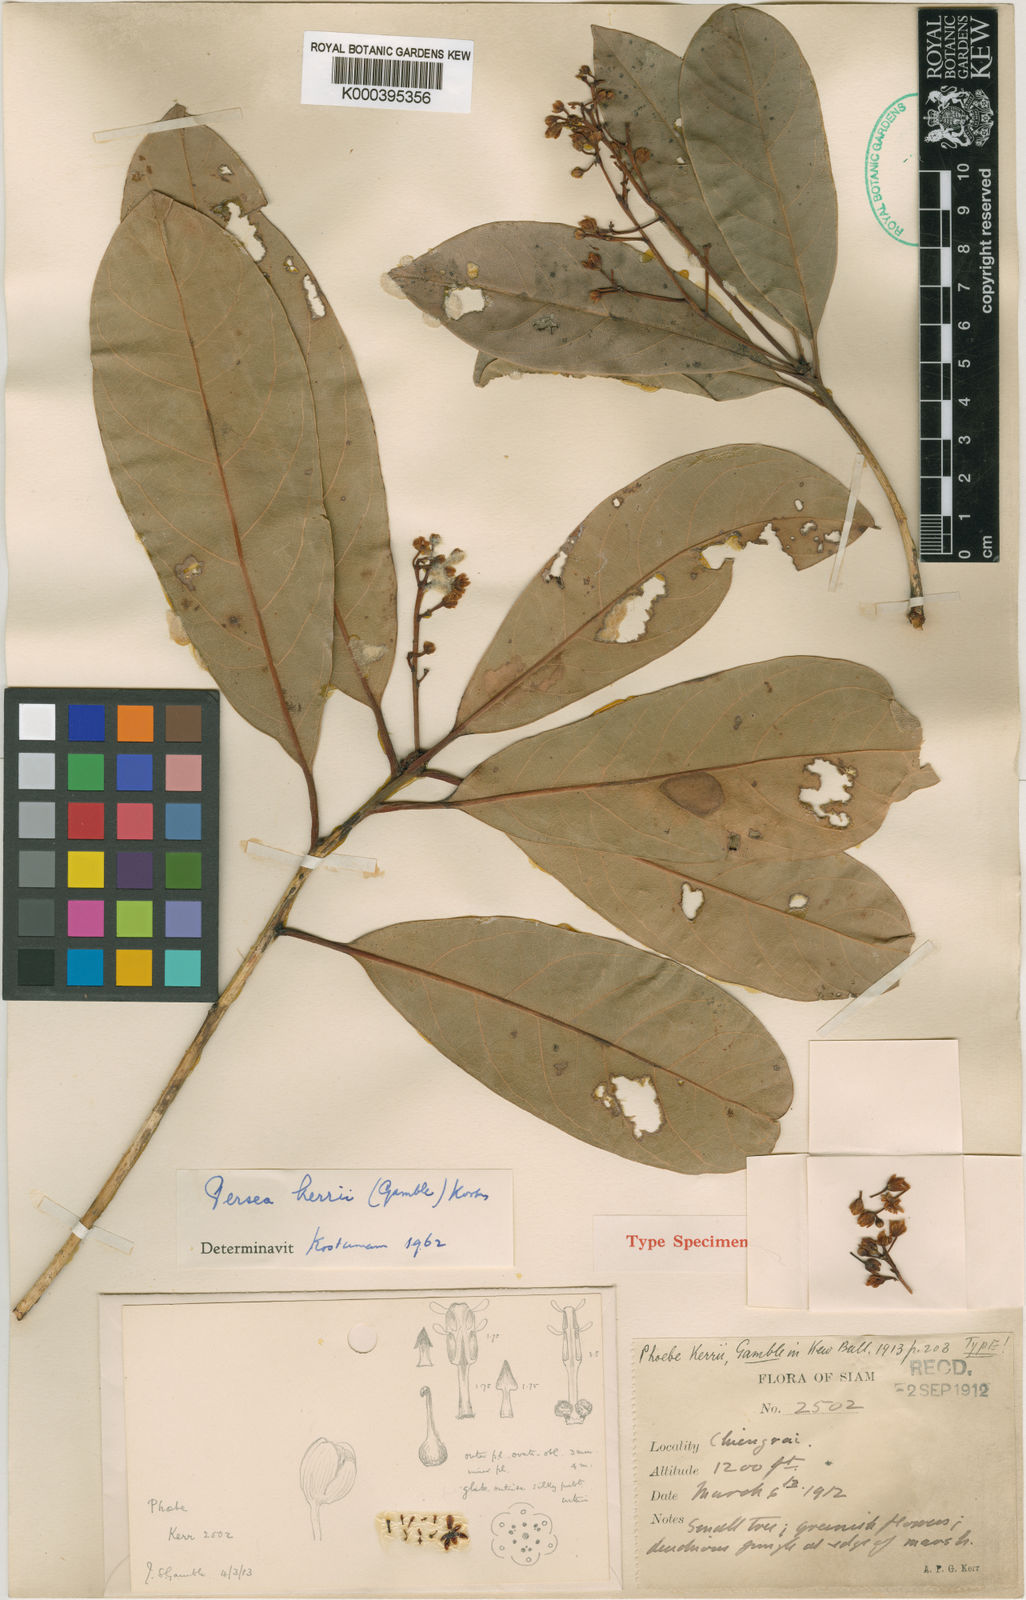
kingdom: Plantae
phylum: Tracheophyta
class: Magnoliopsida
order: Laurales
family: Lauraceae
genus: Persea
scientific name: Persea
